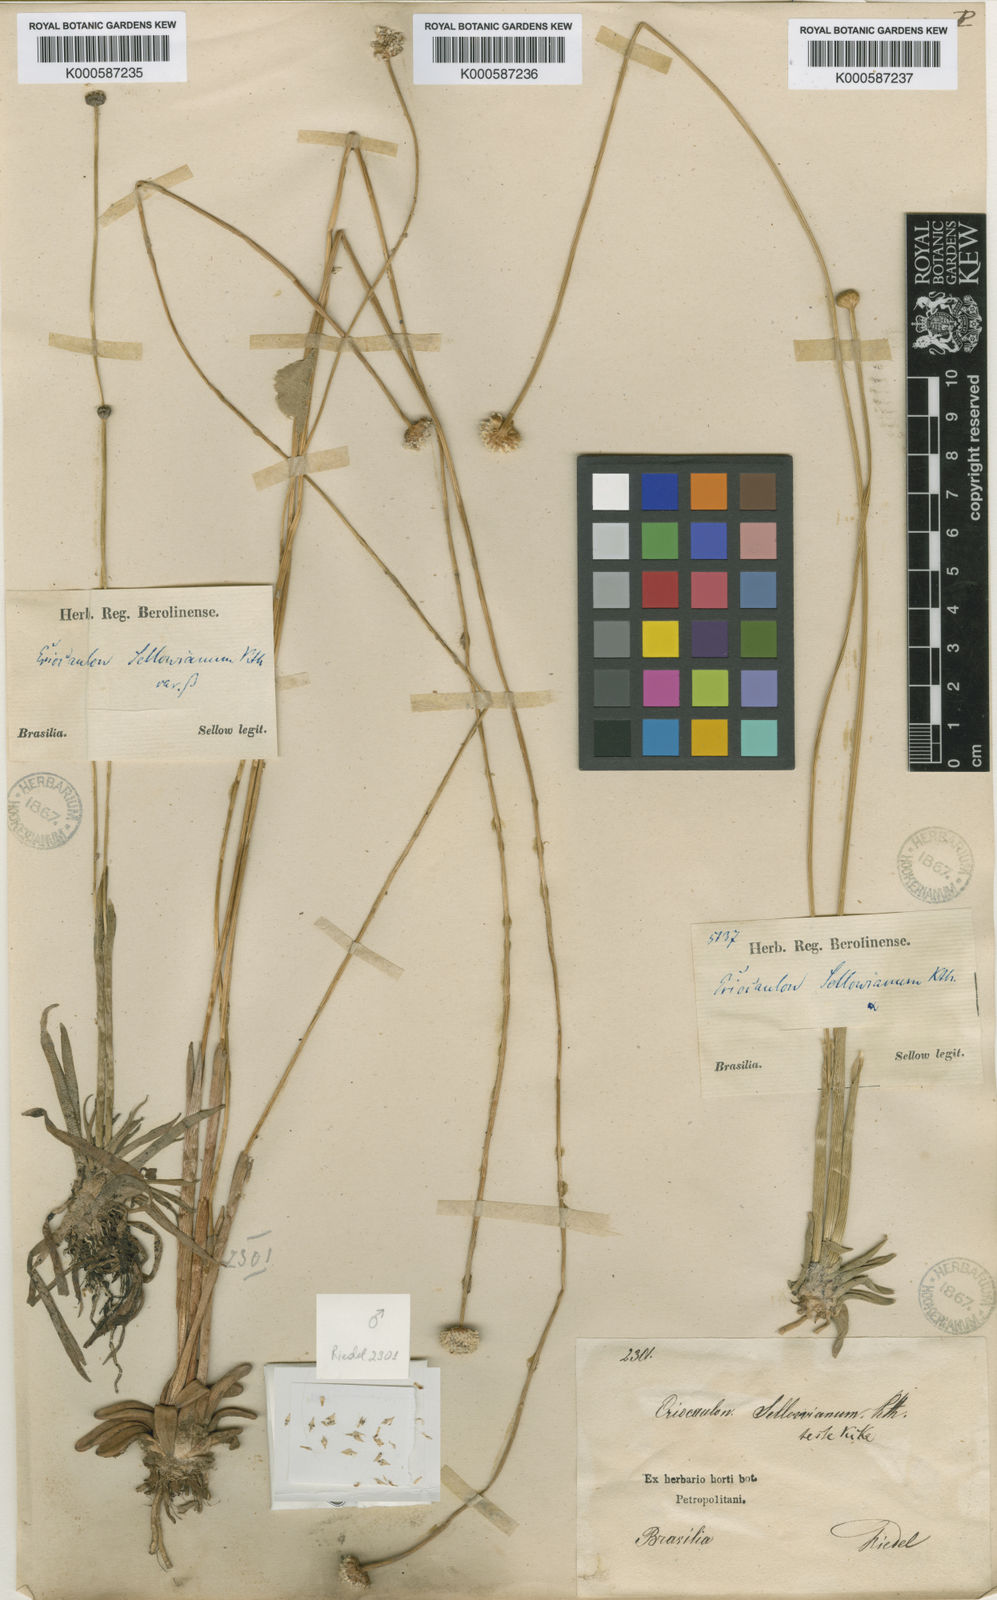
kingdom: Plantae
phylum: Tracheophyta
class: Liliopsida
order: Poales
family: Eriocaulaceae
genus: Eriocaulon
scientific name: Eriocaulon sellowianum
